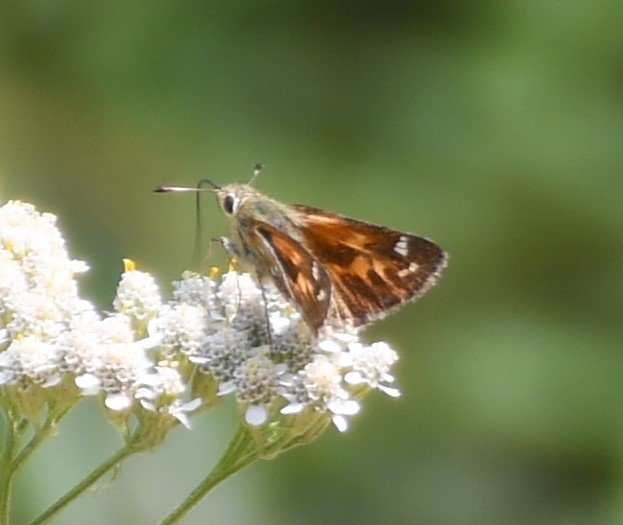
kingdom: Animalia
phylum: Arthropoda
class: Insecta
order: Lepidoptera
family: Hesperiidae
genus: Hesperia
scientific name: Hesperia comma
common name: Common Branded Skipper
